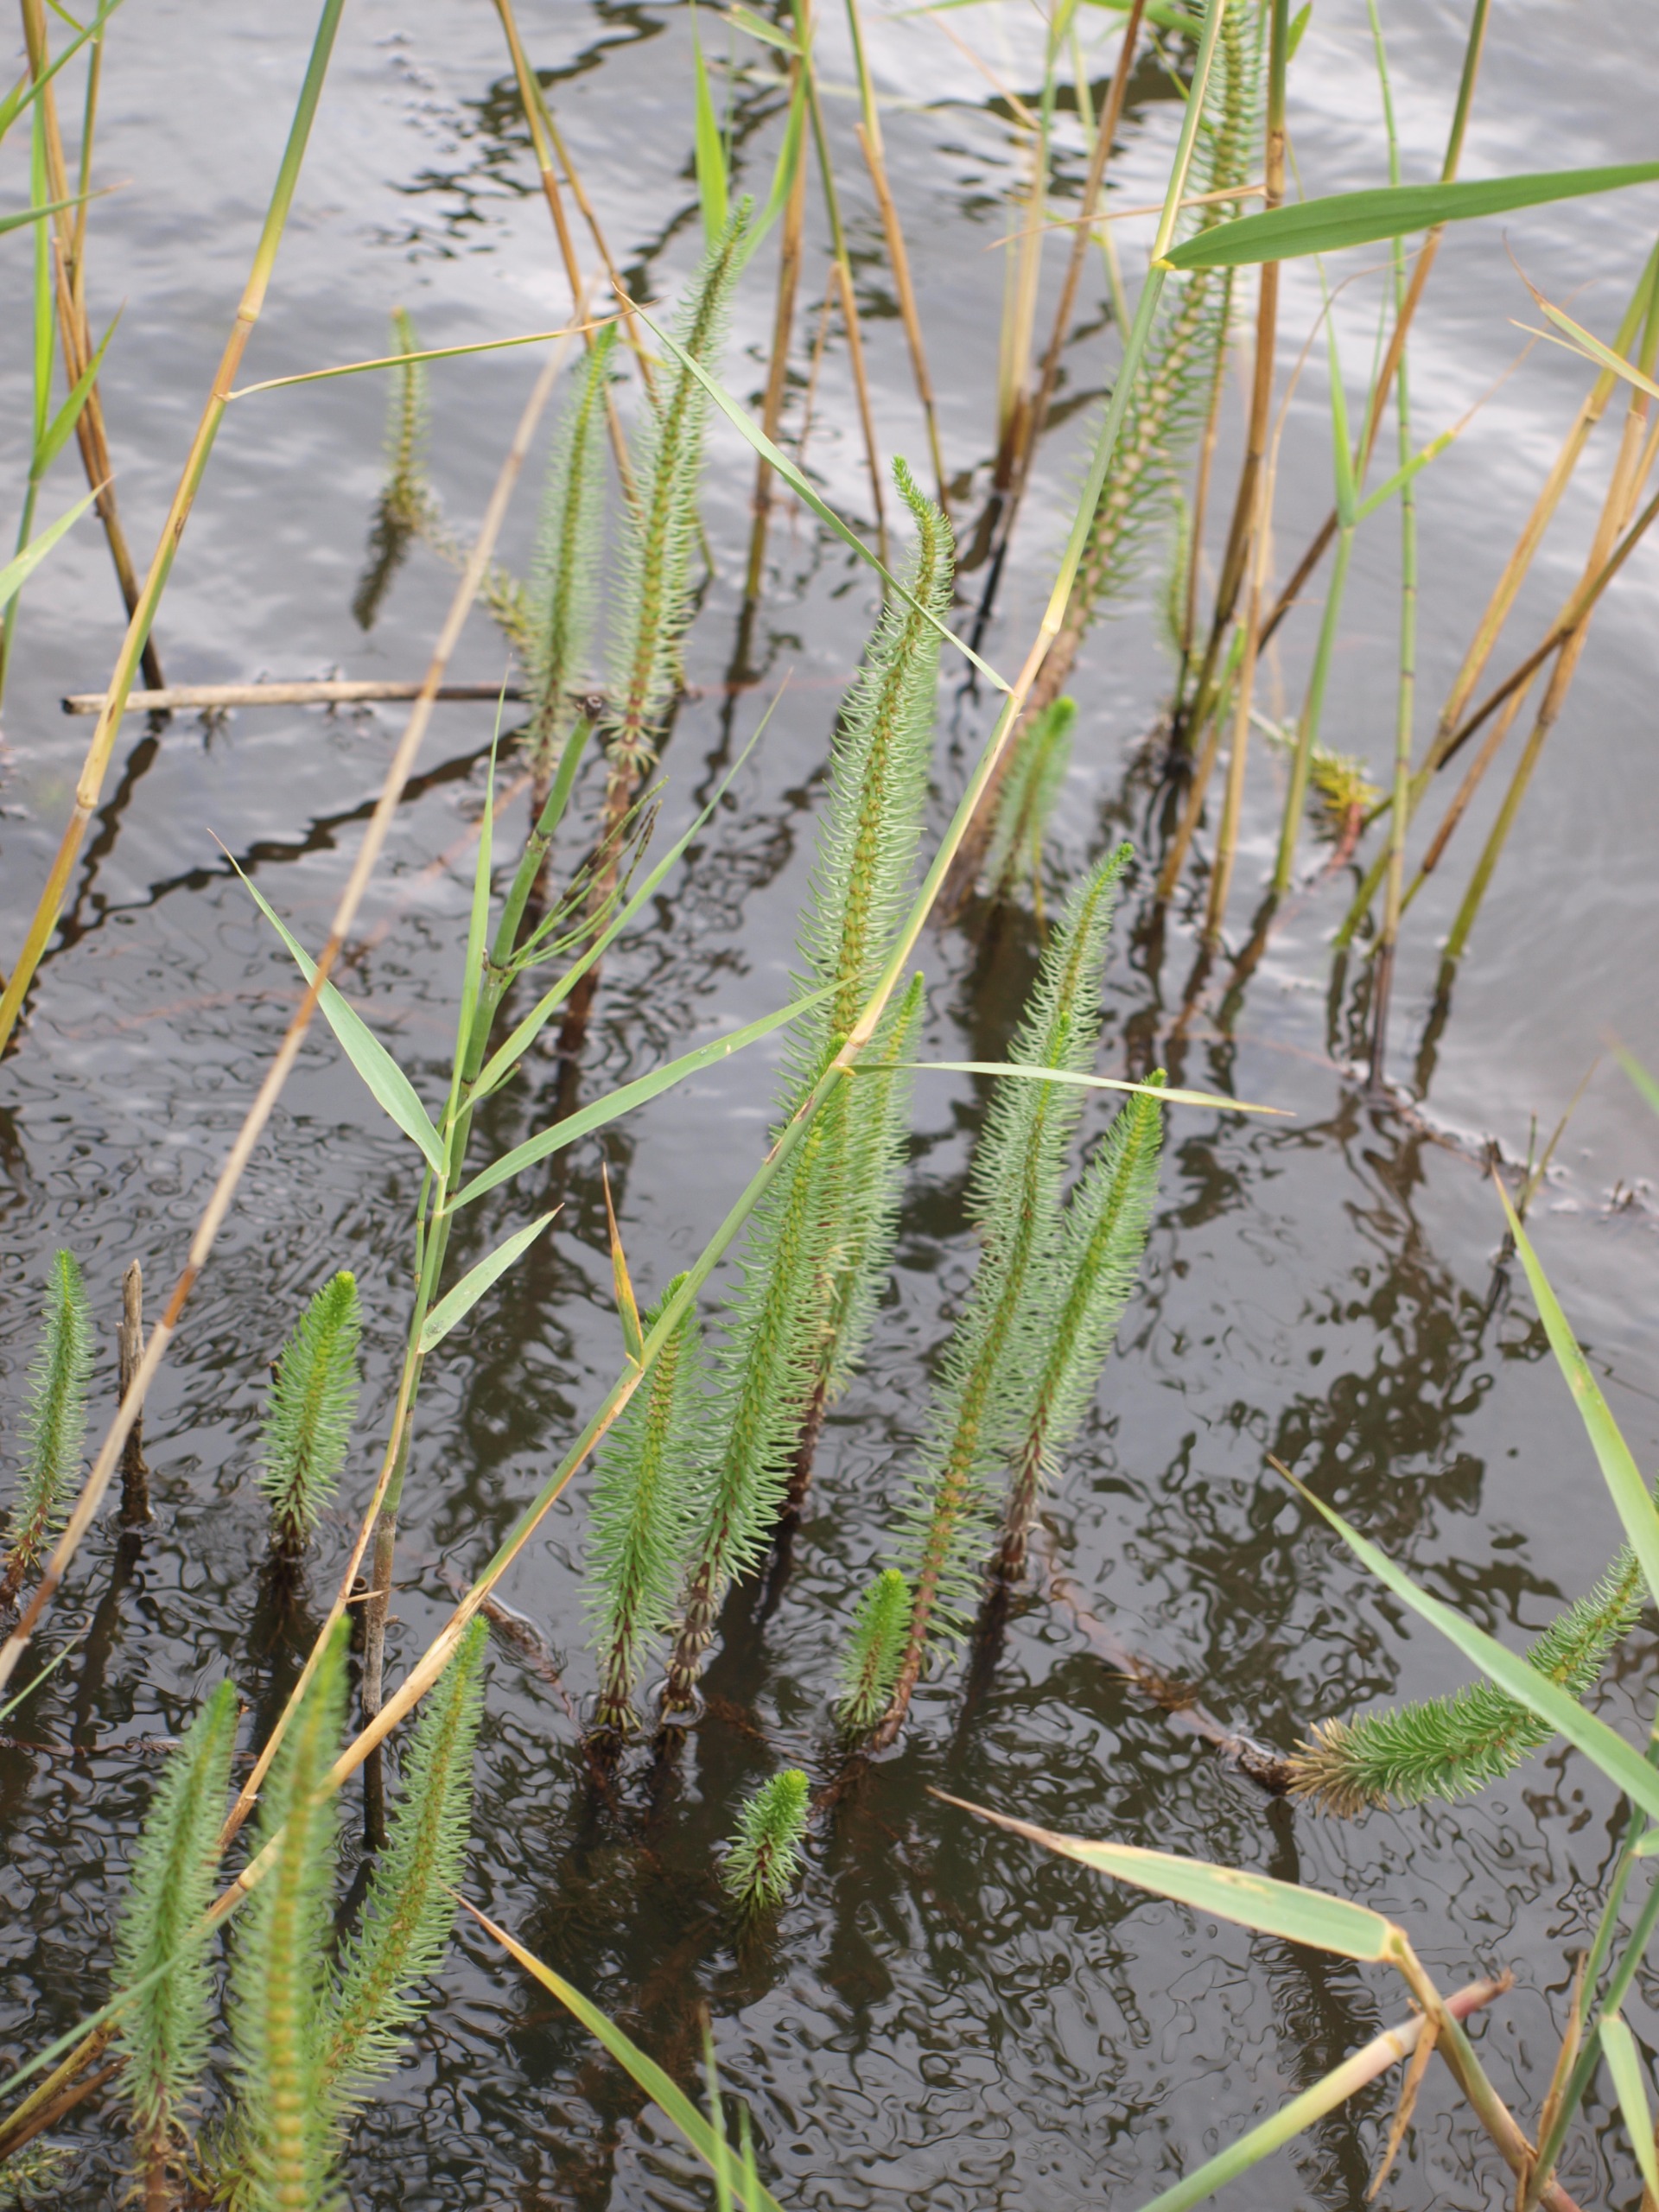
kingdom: Plantae
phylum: Tracheophyta
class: Magnoliopsida
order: Lamiales
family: Plantaginaceae
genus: Hippuris
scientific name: Hippuris vulgaris
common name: Vandspir
